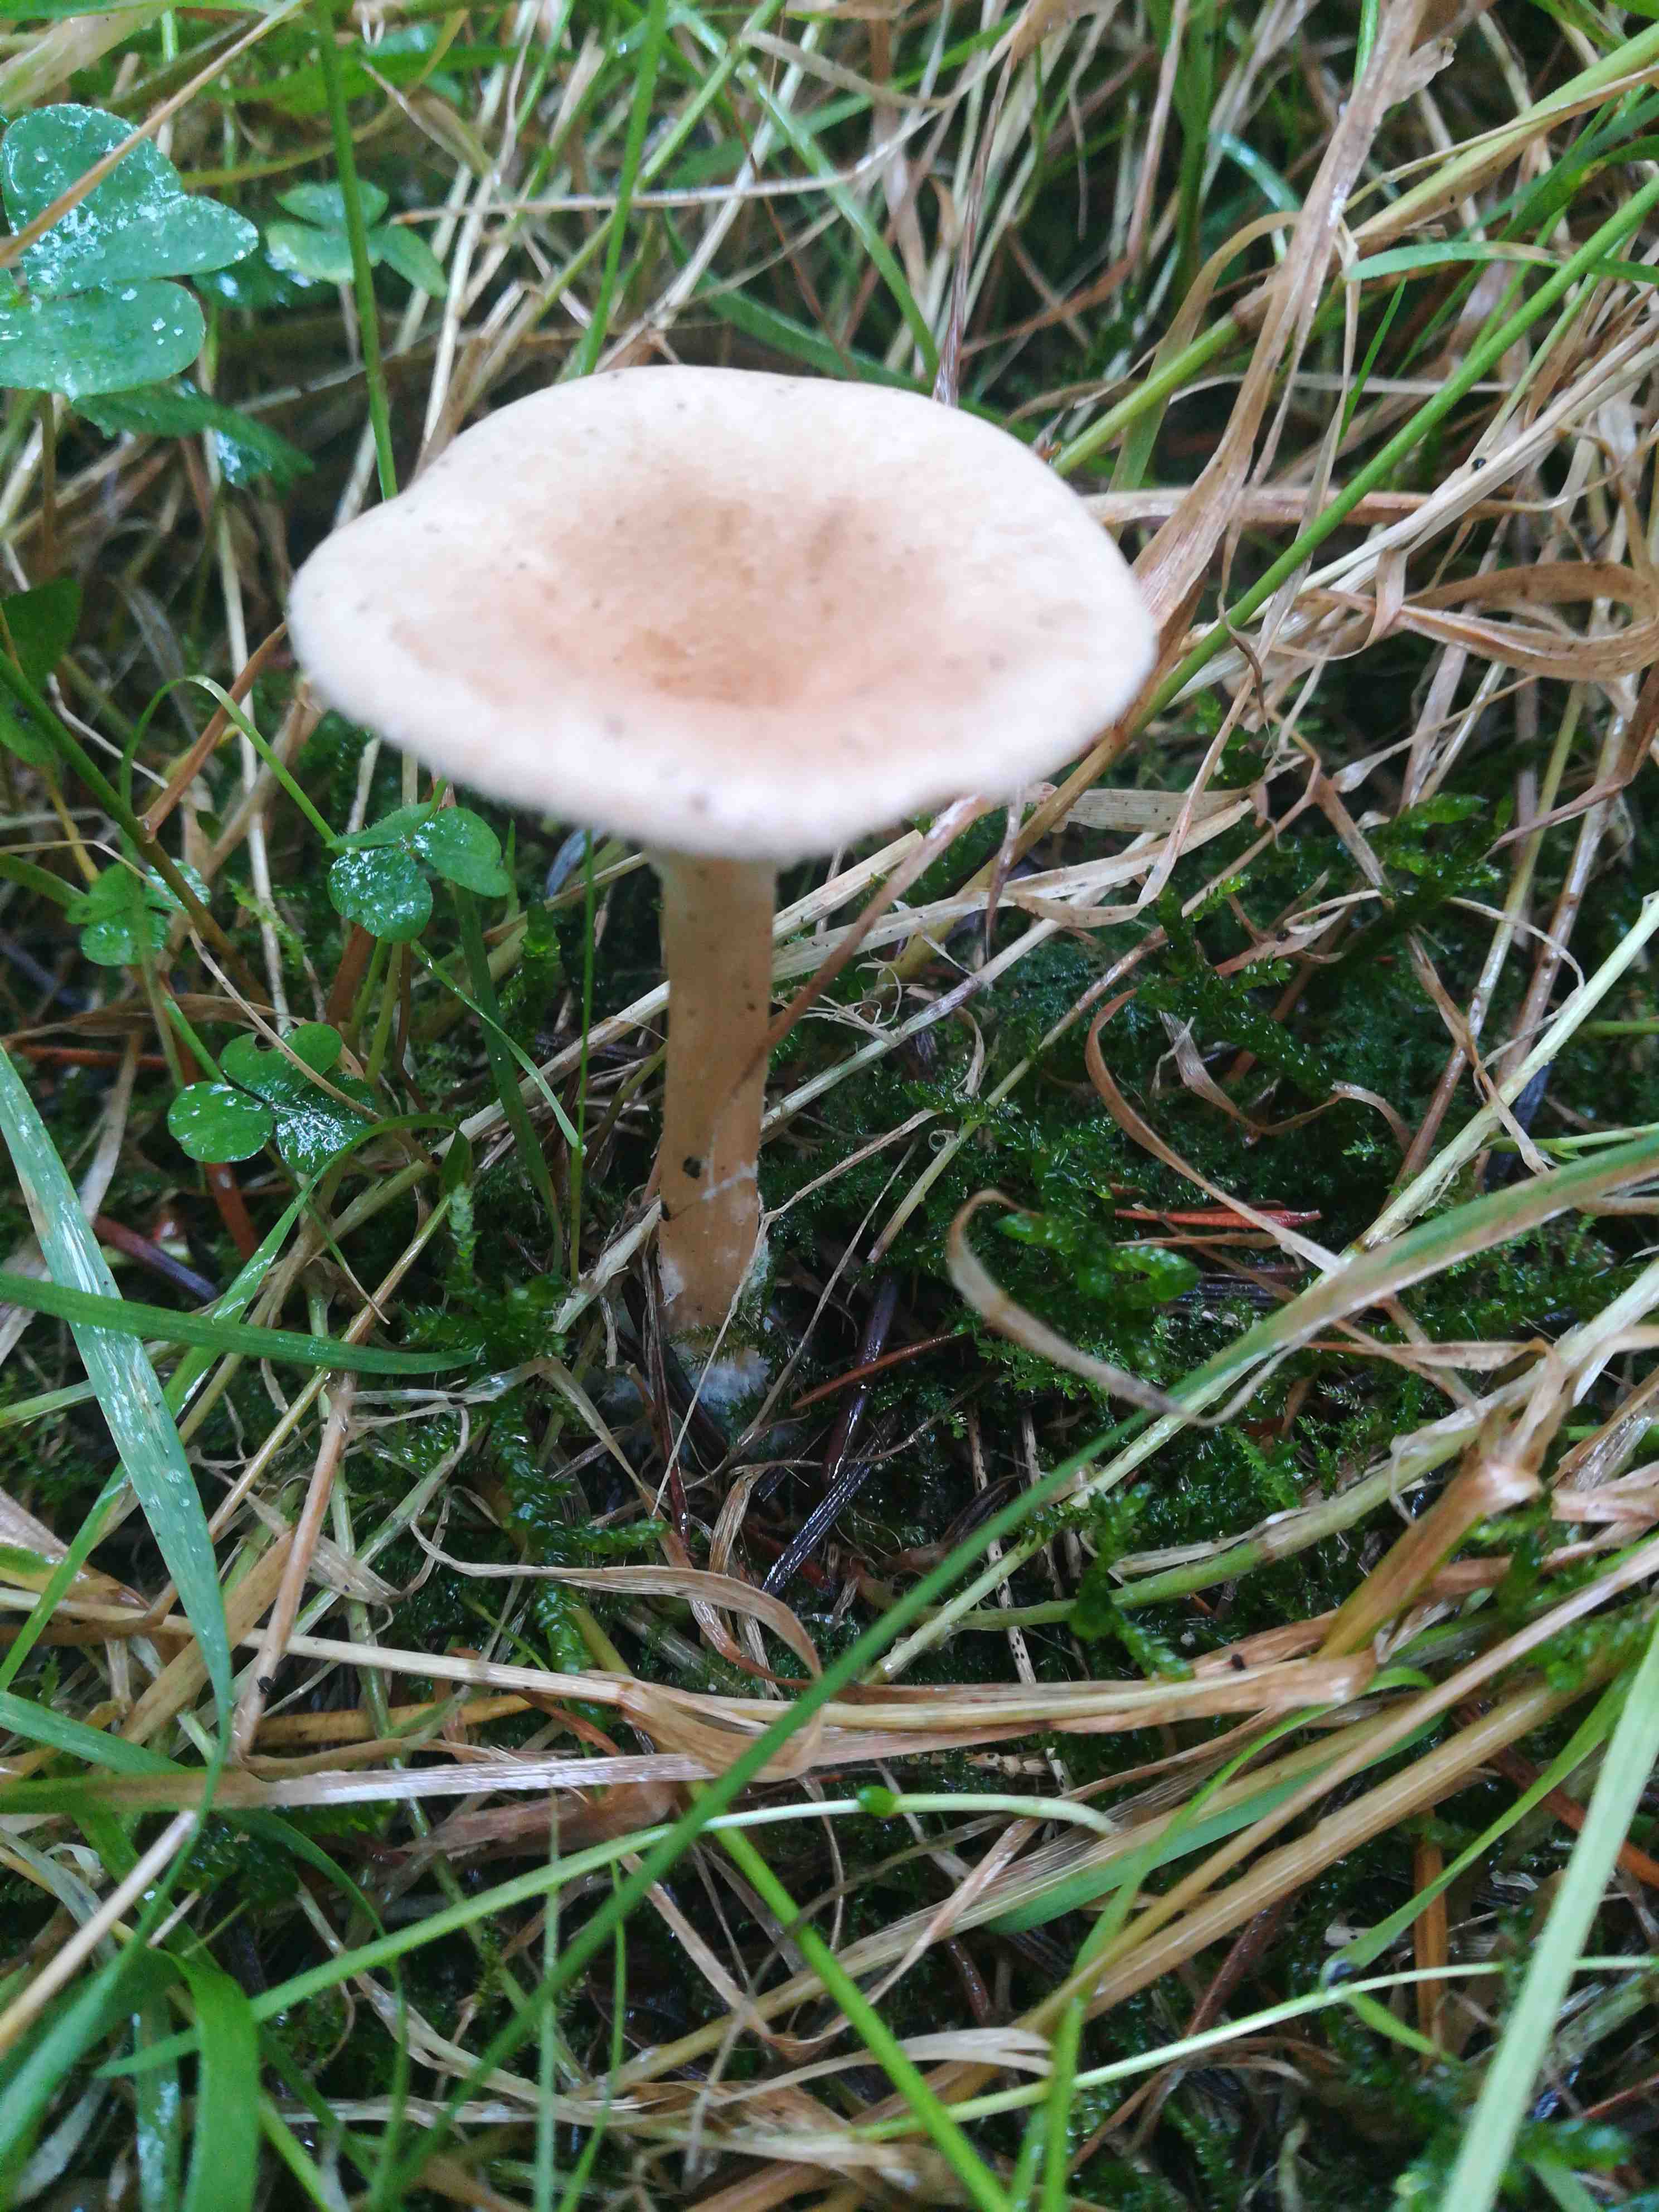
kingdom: Fungi
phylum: Basidiomycota
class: Agaricomycetes
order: Agaricales
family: Tricholomataceae
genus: Infundibulicybe
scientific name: Infundibulicybe gibba
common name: almindelig tragthat
